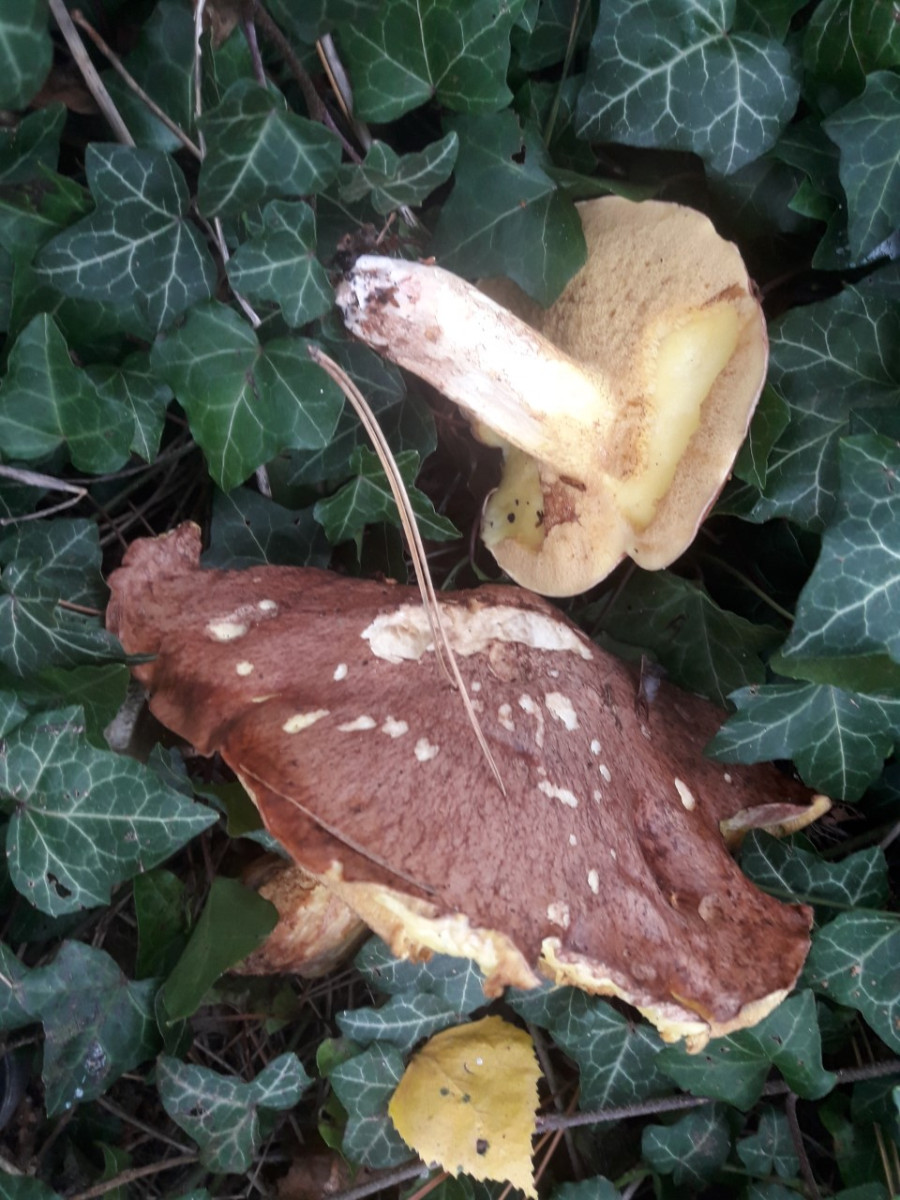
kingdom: Fungi
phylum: Basidiomycota
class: Agaricomycetes
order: Boletales
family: Suillaceae
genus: Suillus
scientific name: Suillus collinitus
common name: rosafodet slimrørhat
